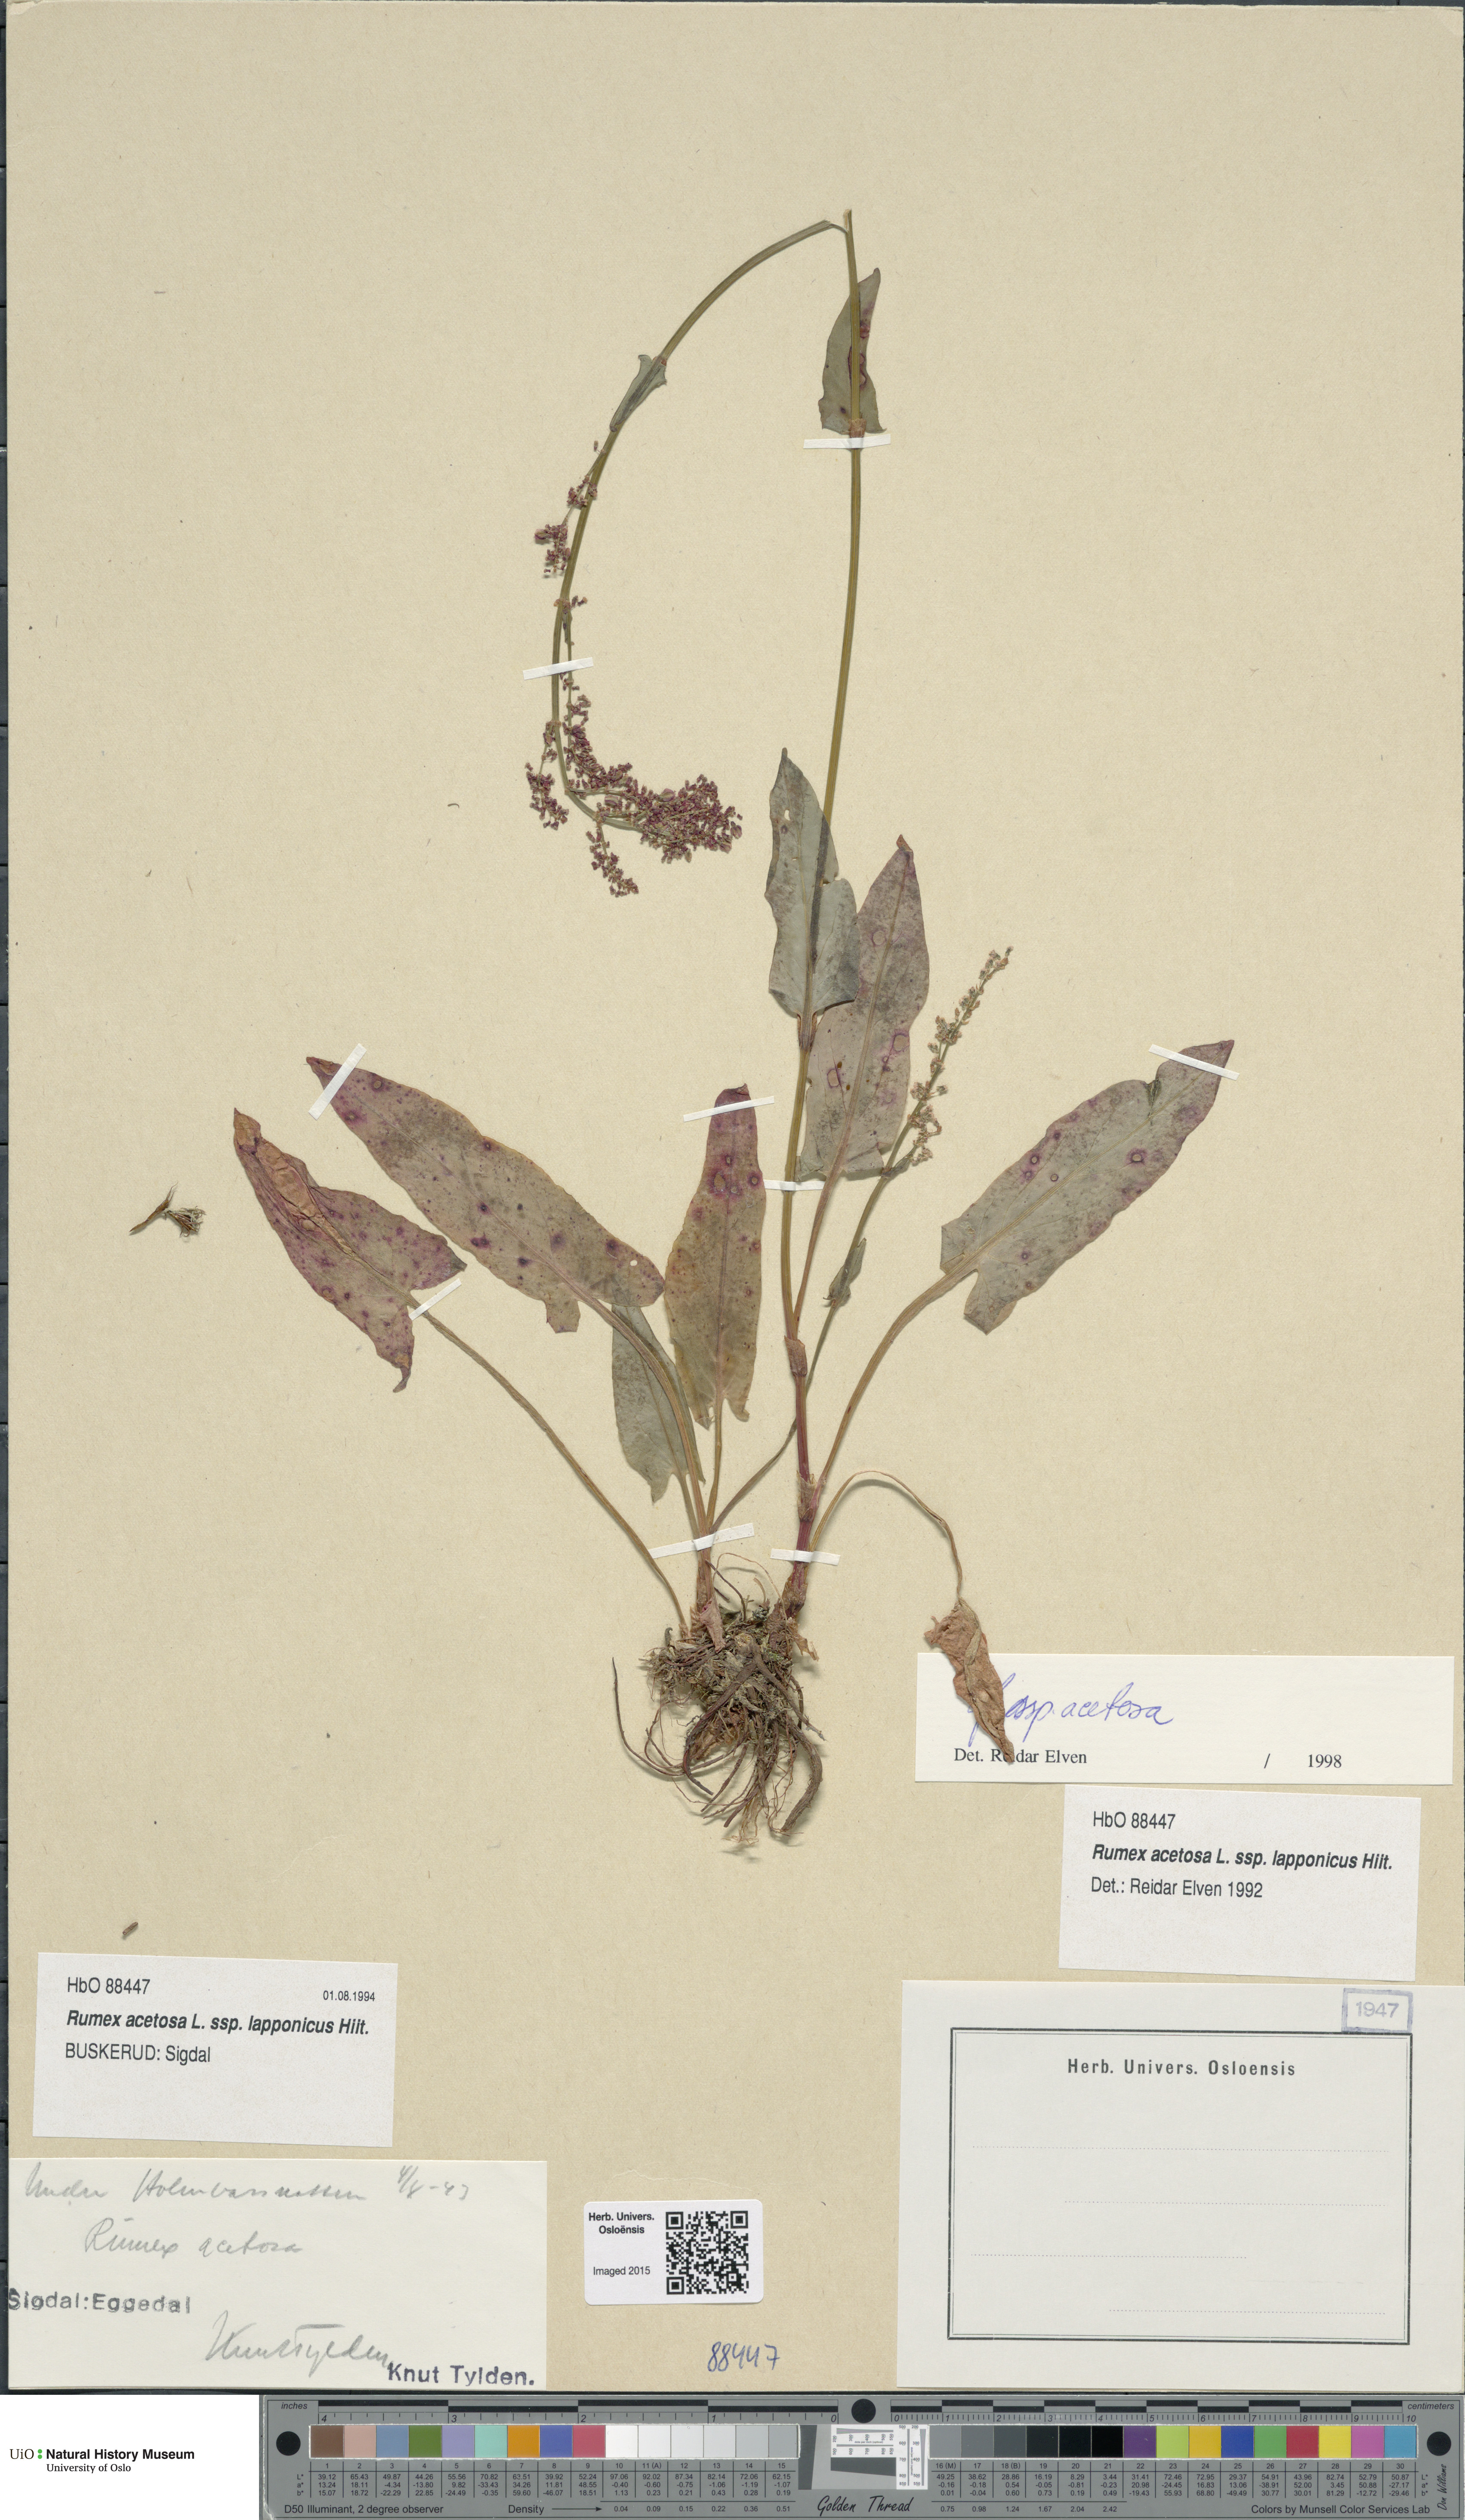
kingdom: Plantae
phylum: Tracheophyta
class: Magnoliopsida
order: Caryophyllales
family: Polygonaceae
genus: Rumex
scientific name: Rumex acetosa
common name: Garden sorrel
